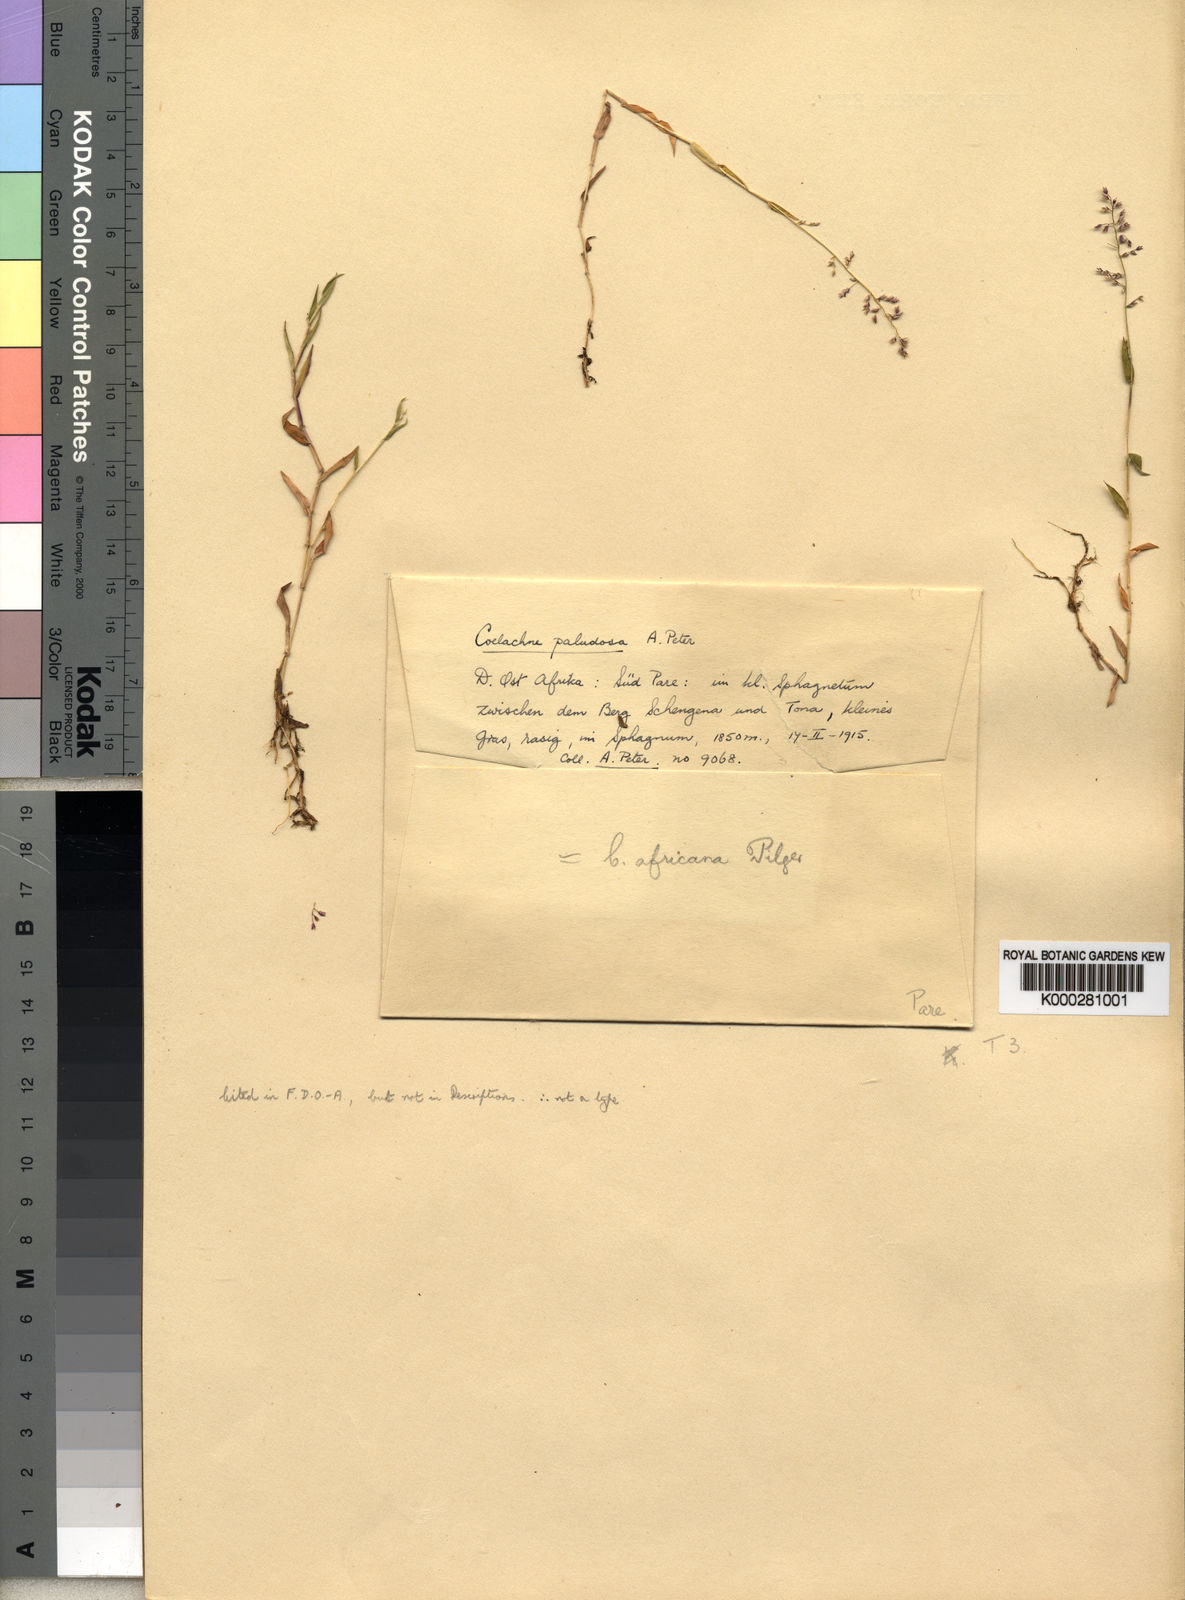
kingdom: Plantae
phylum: Tracheophyta
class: Liliopsida
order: Poales
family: Poaceae
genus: Coelachne
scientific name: Coelachne africana
